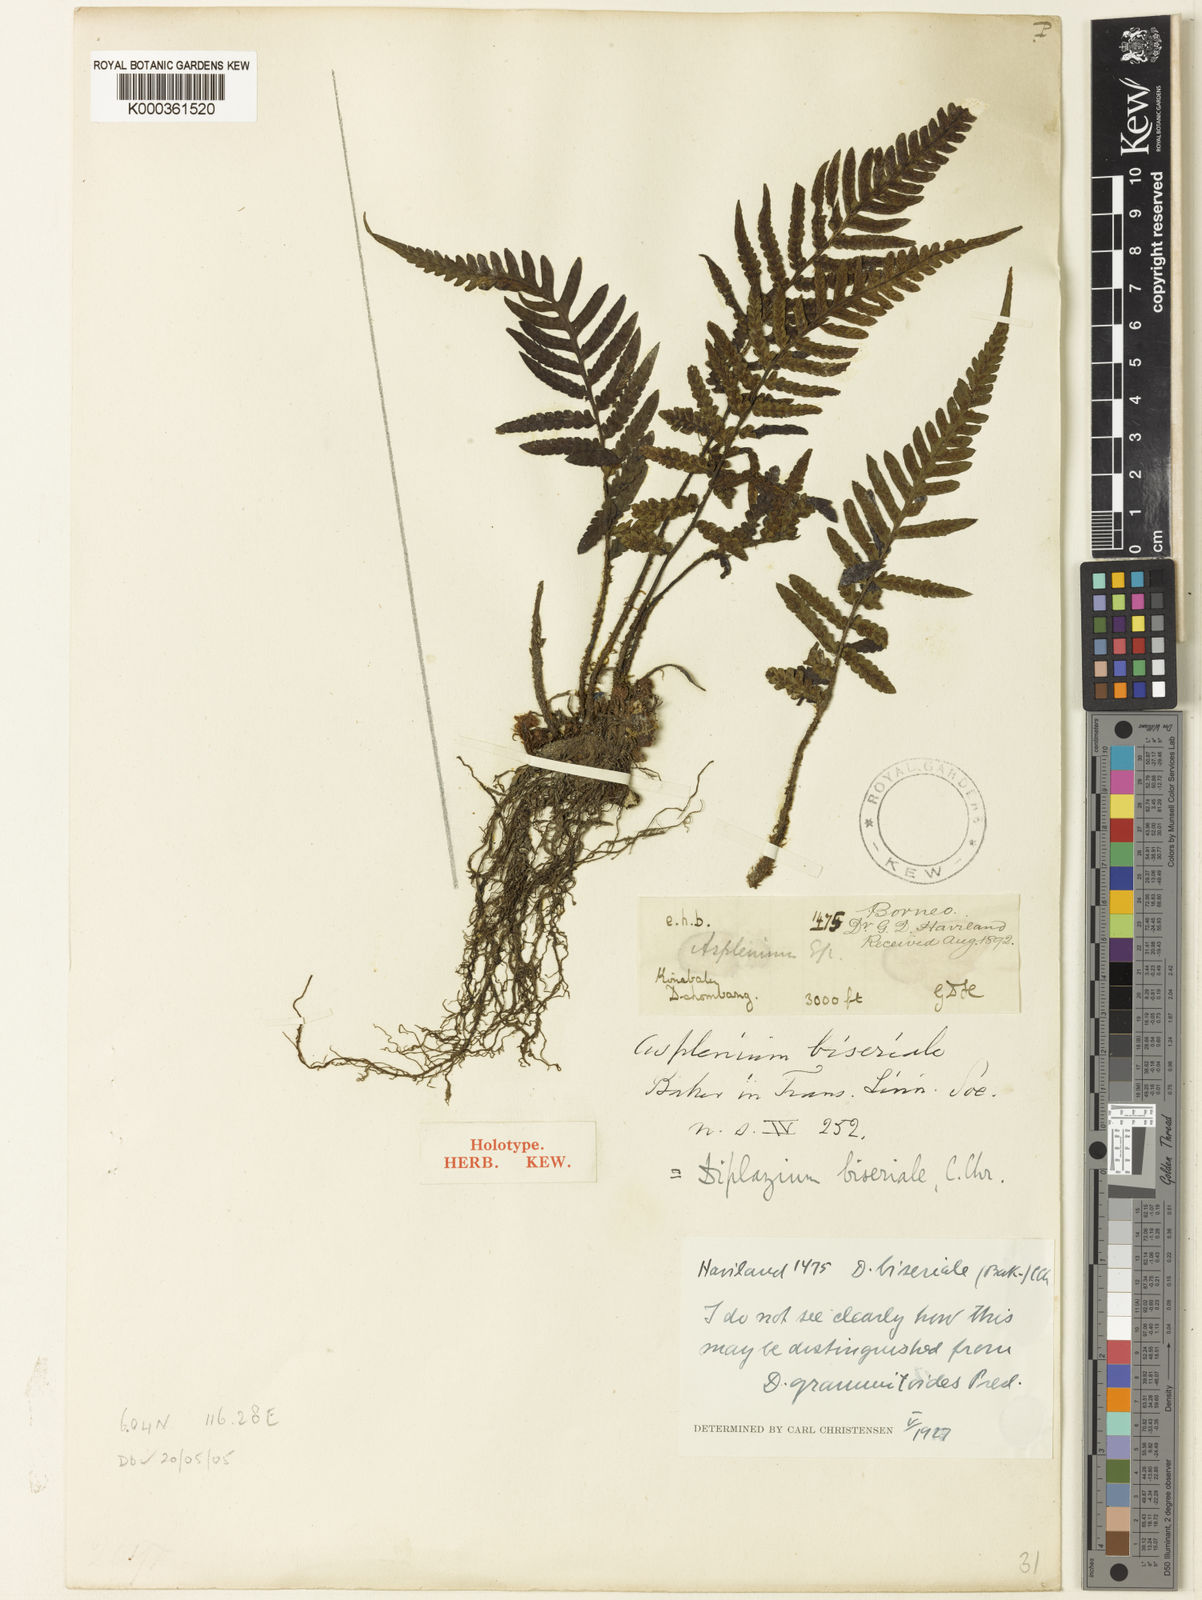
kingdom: Plantae
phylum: Tracheophyta
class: Polypodiopsida
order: Polypodiales
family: Athyriaceae
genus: Deparia
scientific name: Deparia
